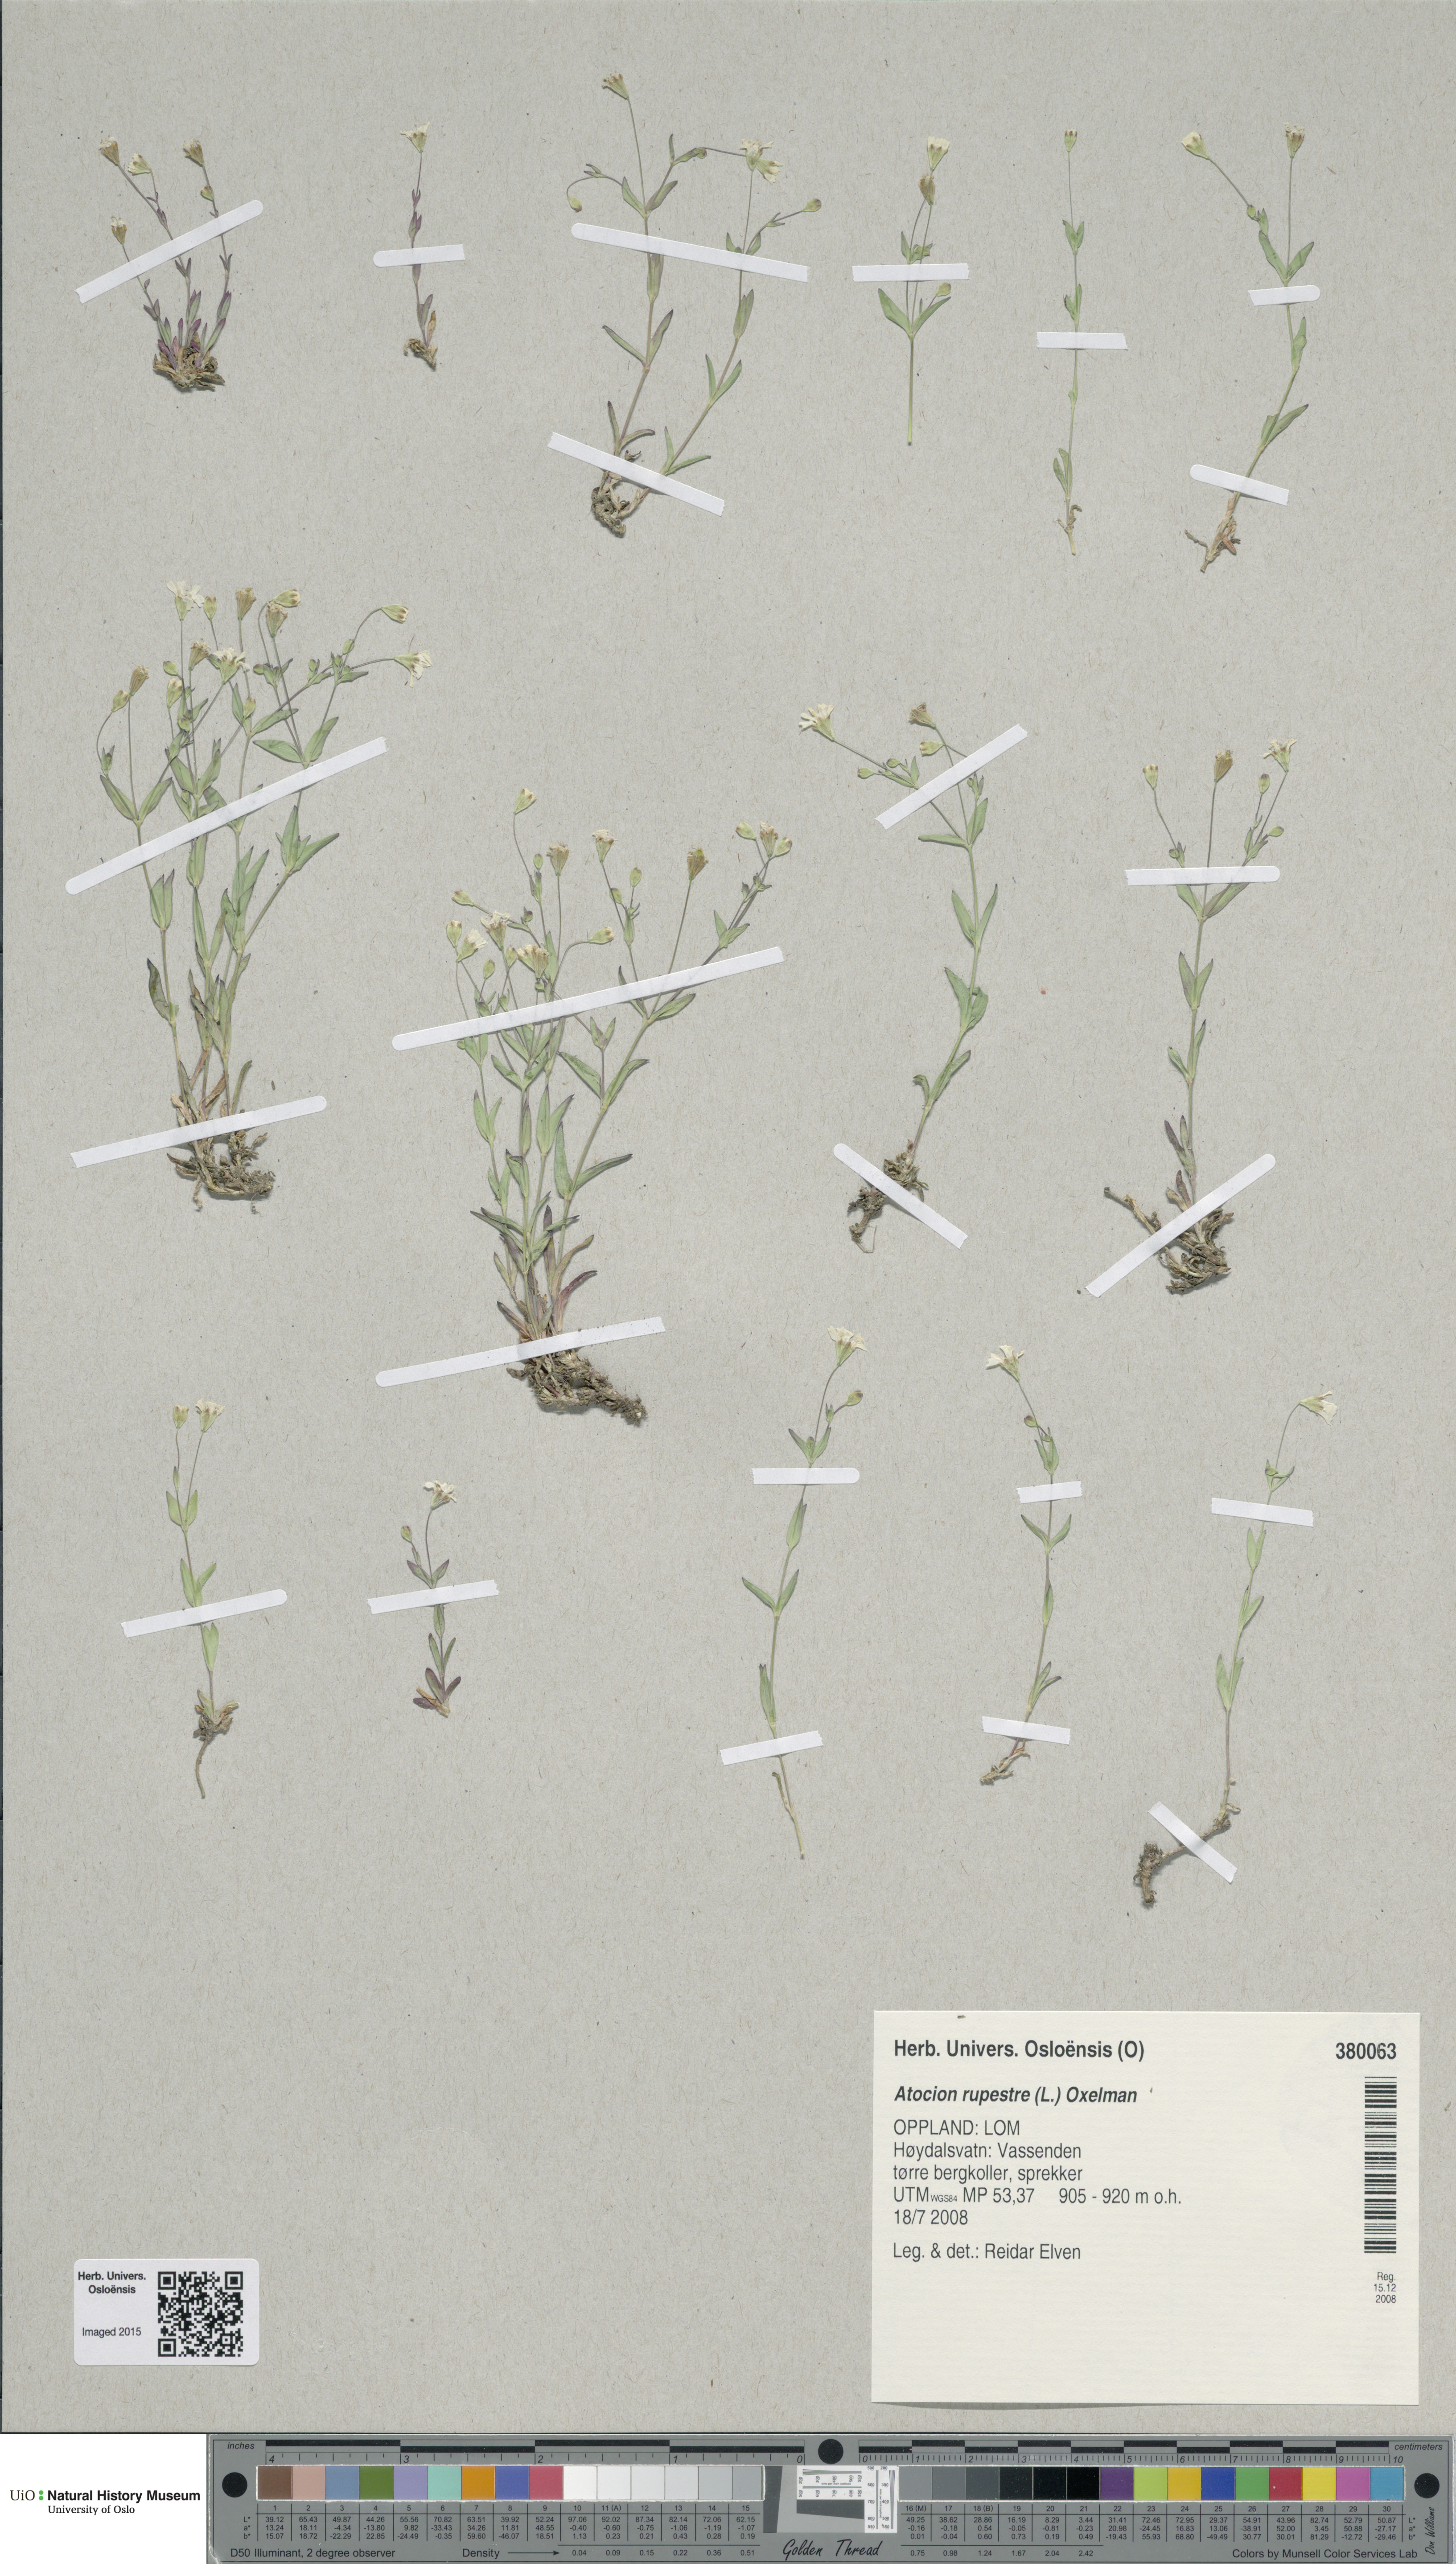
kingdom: Plantae
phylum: Tracheophyta
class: Magnoliopsida
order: Caryophyllales
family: Caryophyllaceae
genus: Atocion
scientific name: Atocion rupestre
